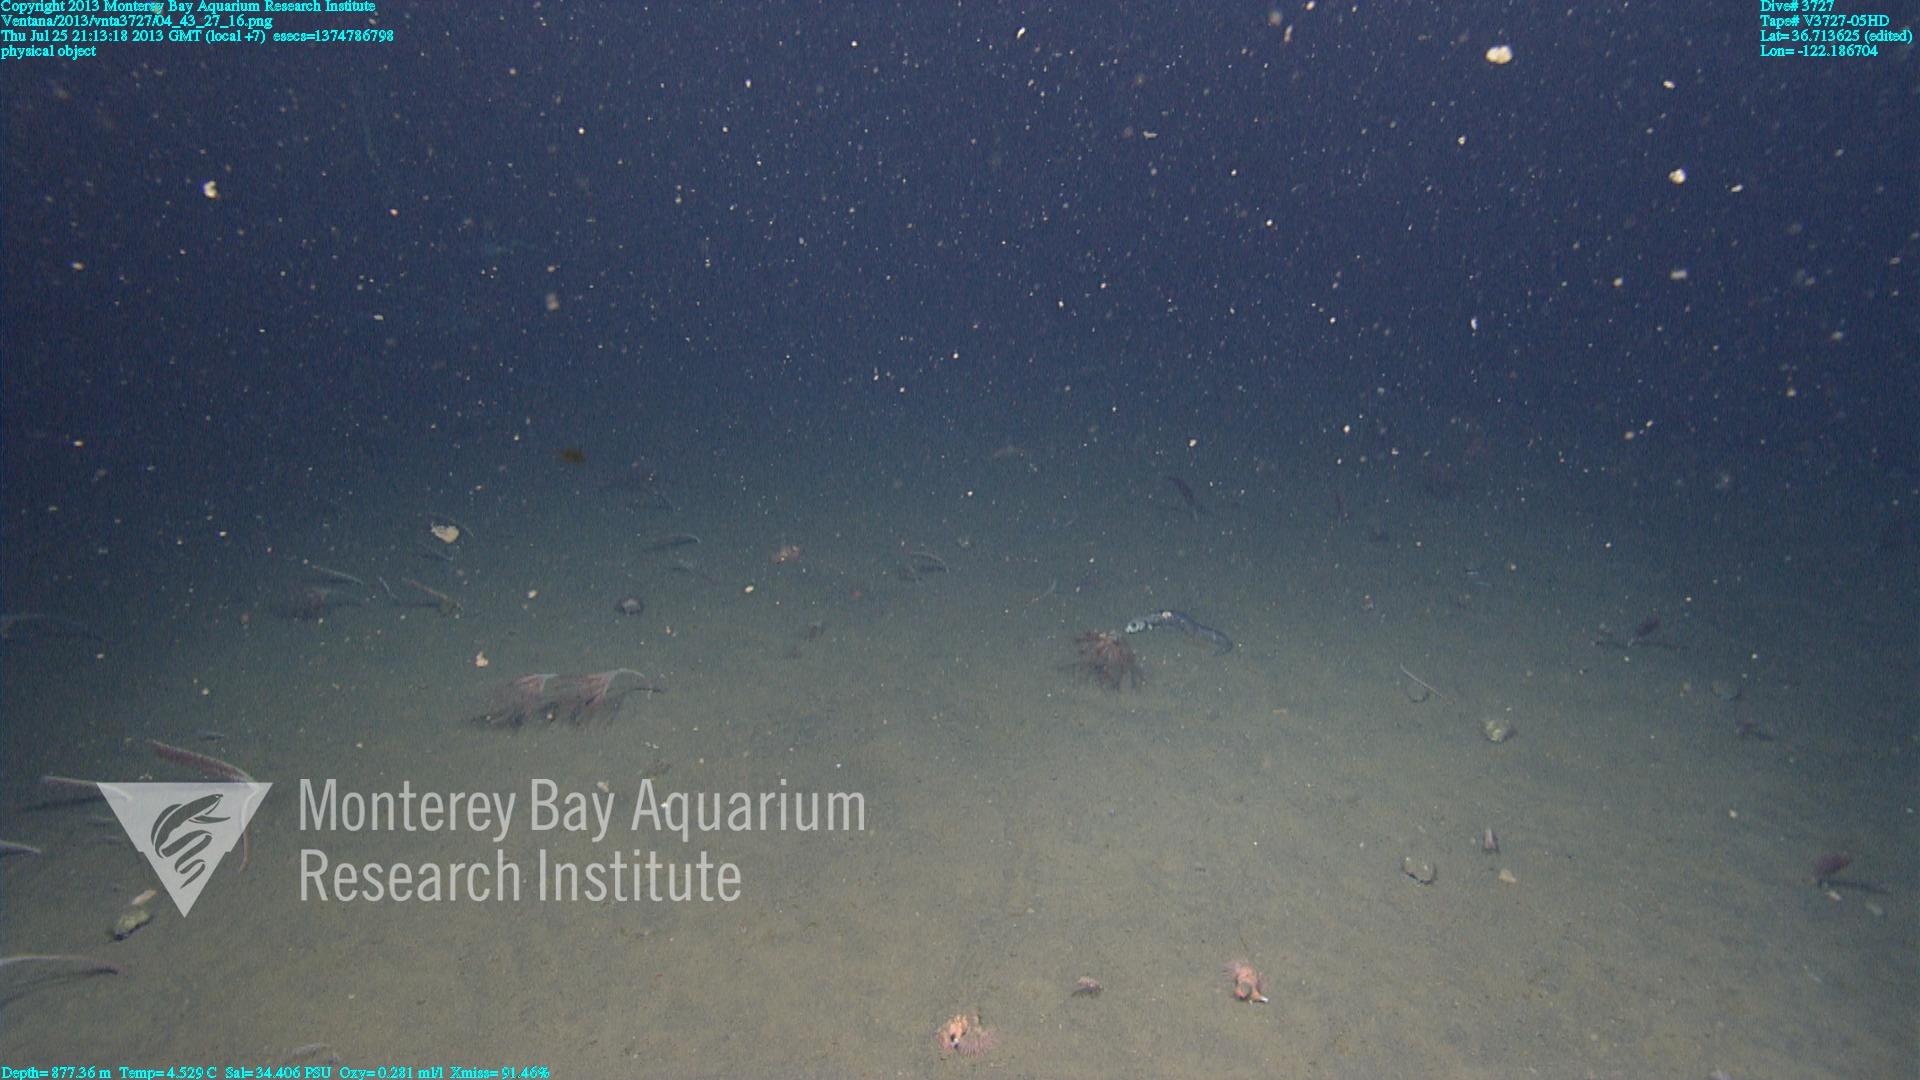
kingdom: Animalia
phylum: Cnidaria
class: Anthozoa
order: Scleralcyonacea
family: Umbellulidae
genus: Umbellula
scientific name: Umbellula lindahli
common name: Lindahl's droopy sea pen
